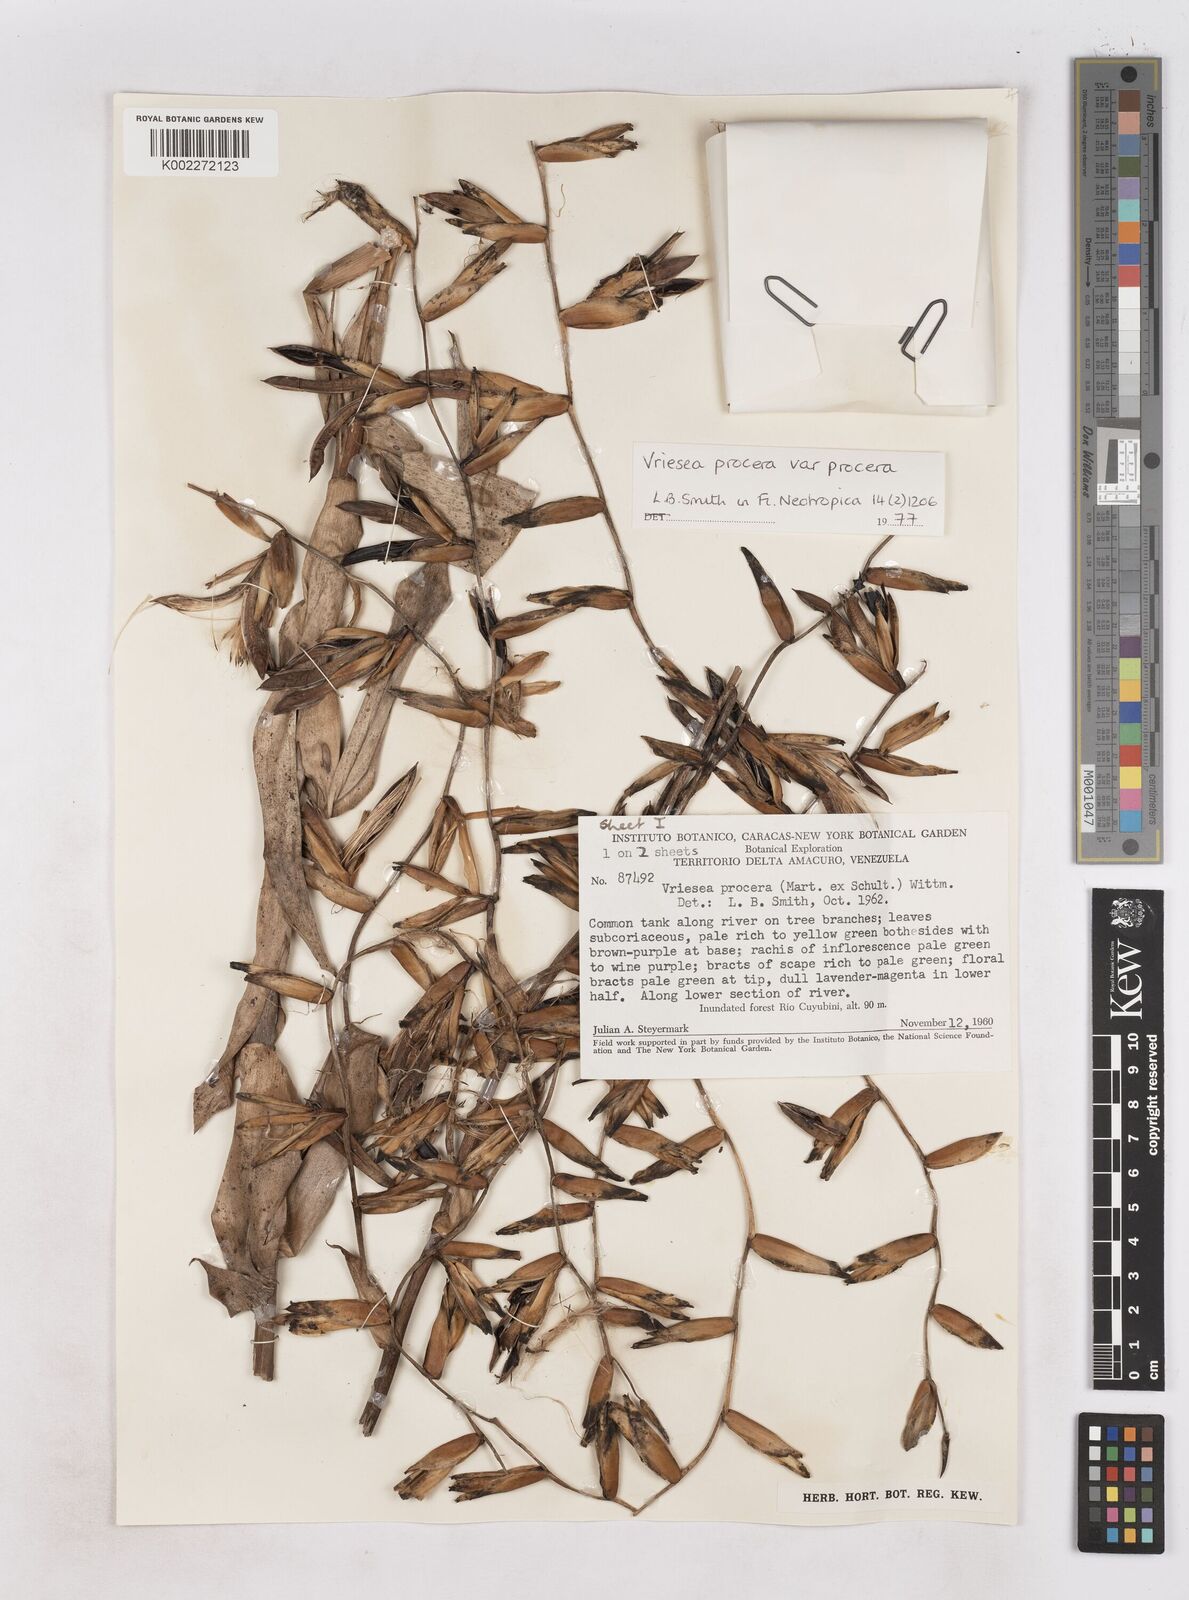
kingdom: Plantae
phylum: Tracheophyta
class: Liliopsida
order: Poales
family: Bromeliaceae
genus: Vriesea
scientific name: Vriesea procera
